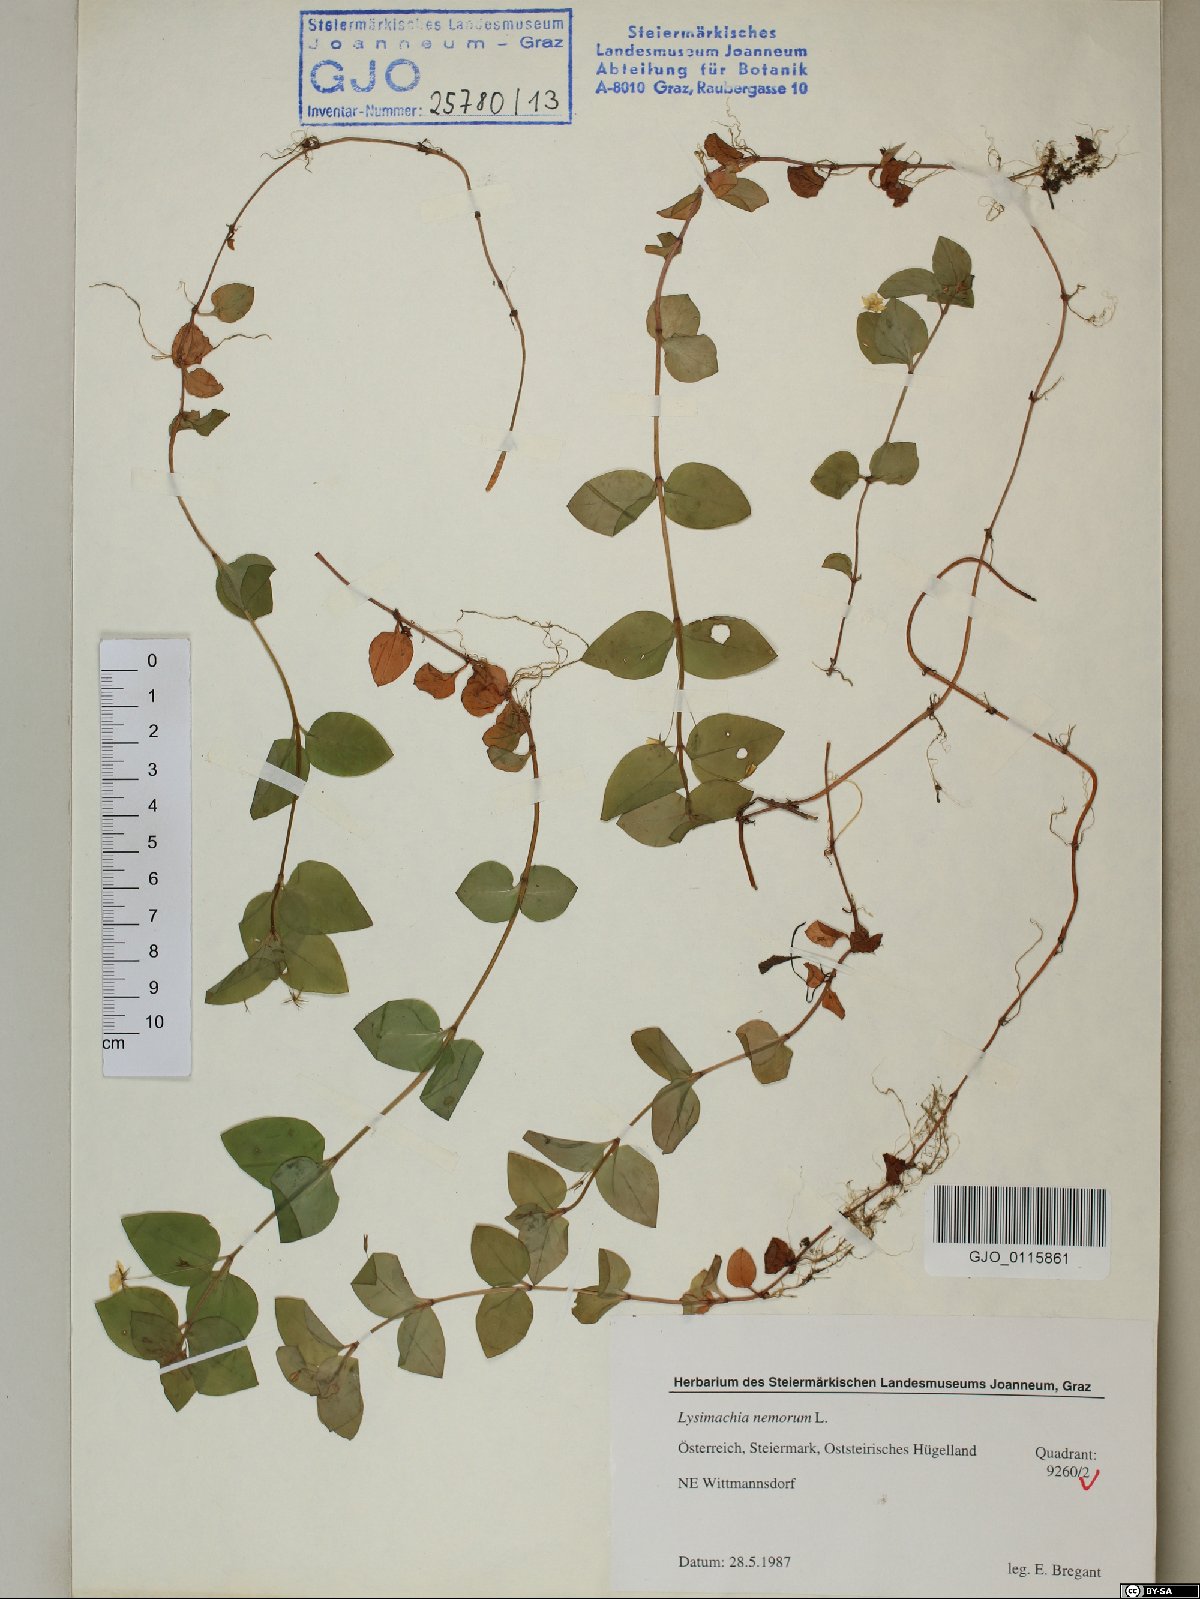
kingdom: Plantae
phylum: Tracheophyta
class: Magnoliopsida
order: Ericales
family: Primulaceae
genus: Lysimachia
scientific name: Lysimachia nemorum
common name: Yellow pimpernel
